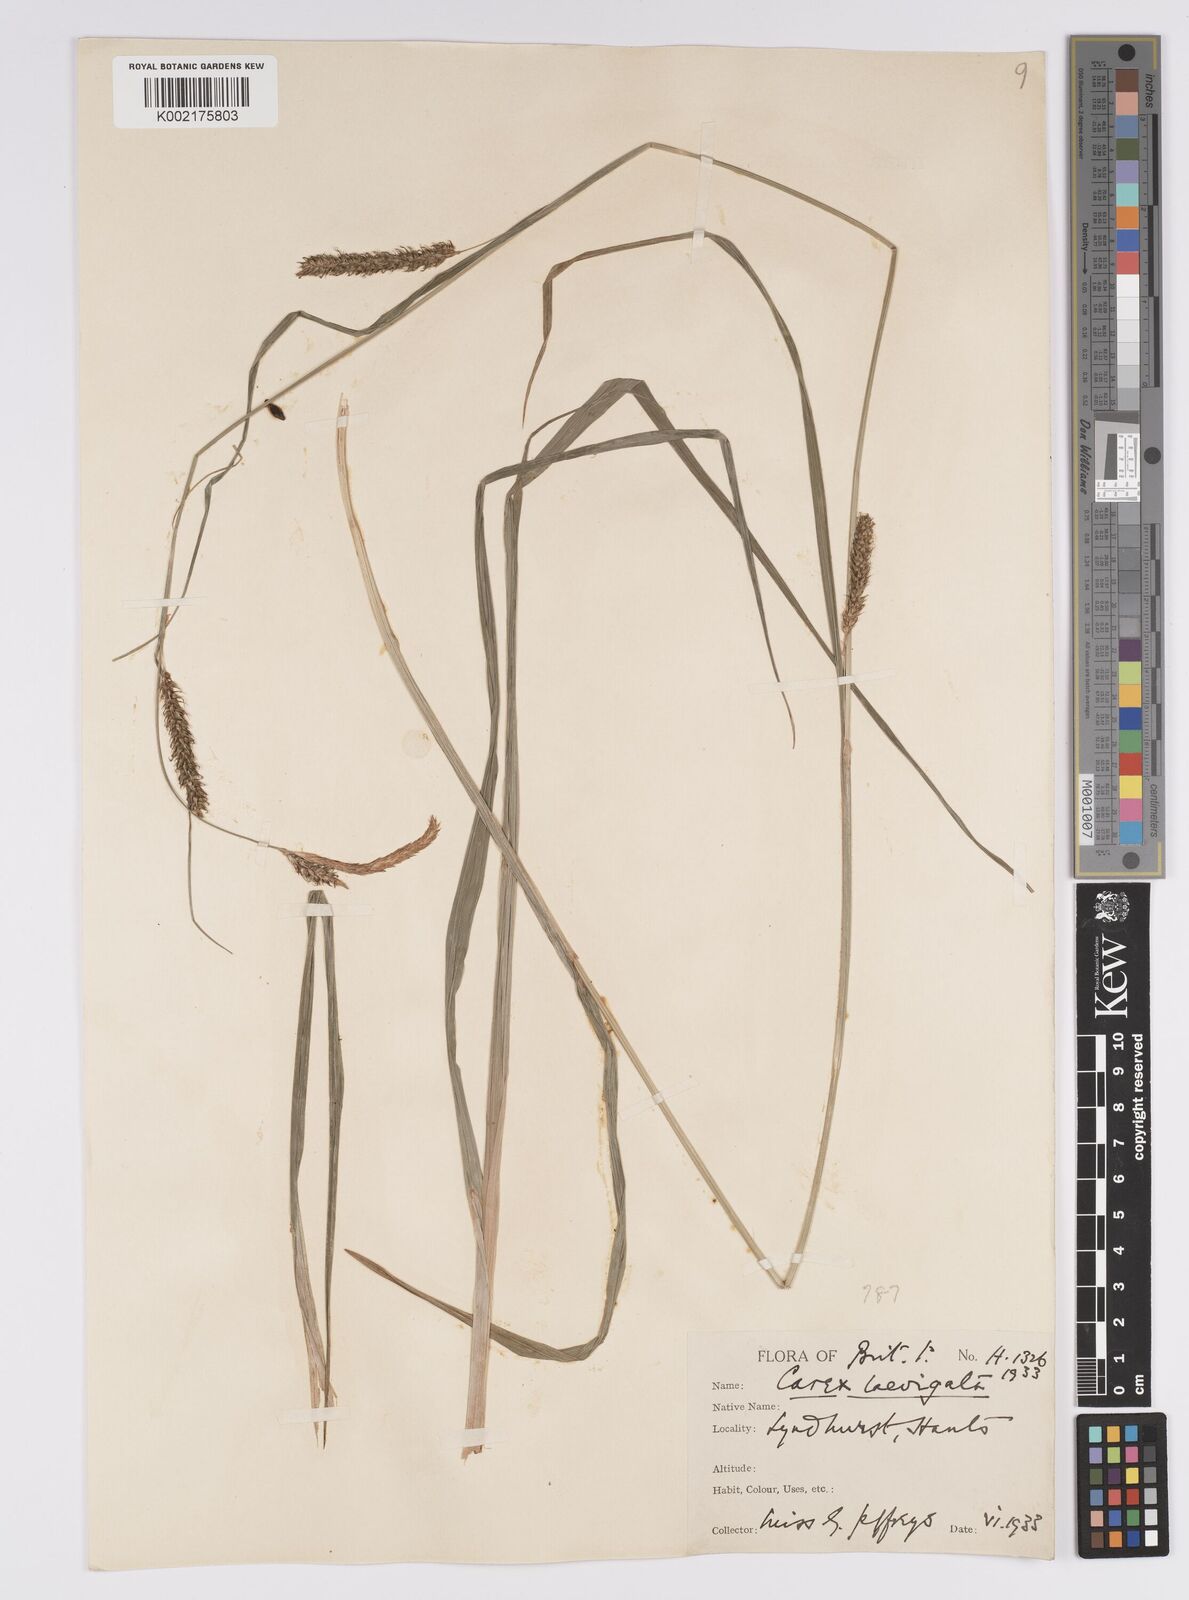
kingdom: Plantae
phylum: Tracheophyta
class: Liliopsida
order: Poales
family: Cyperaceae
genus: Carex
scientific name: Carex laevigata
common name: Smooth-stalked sedge
